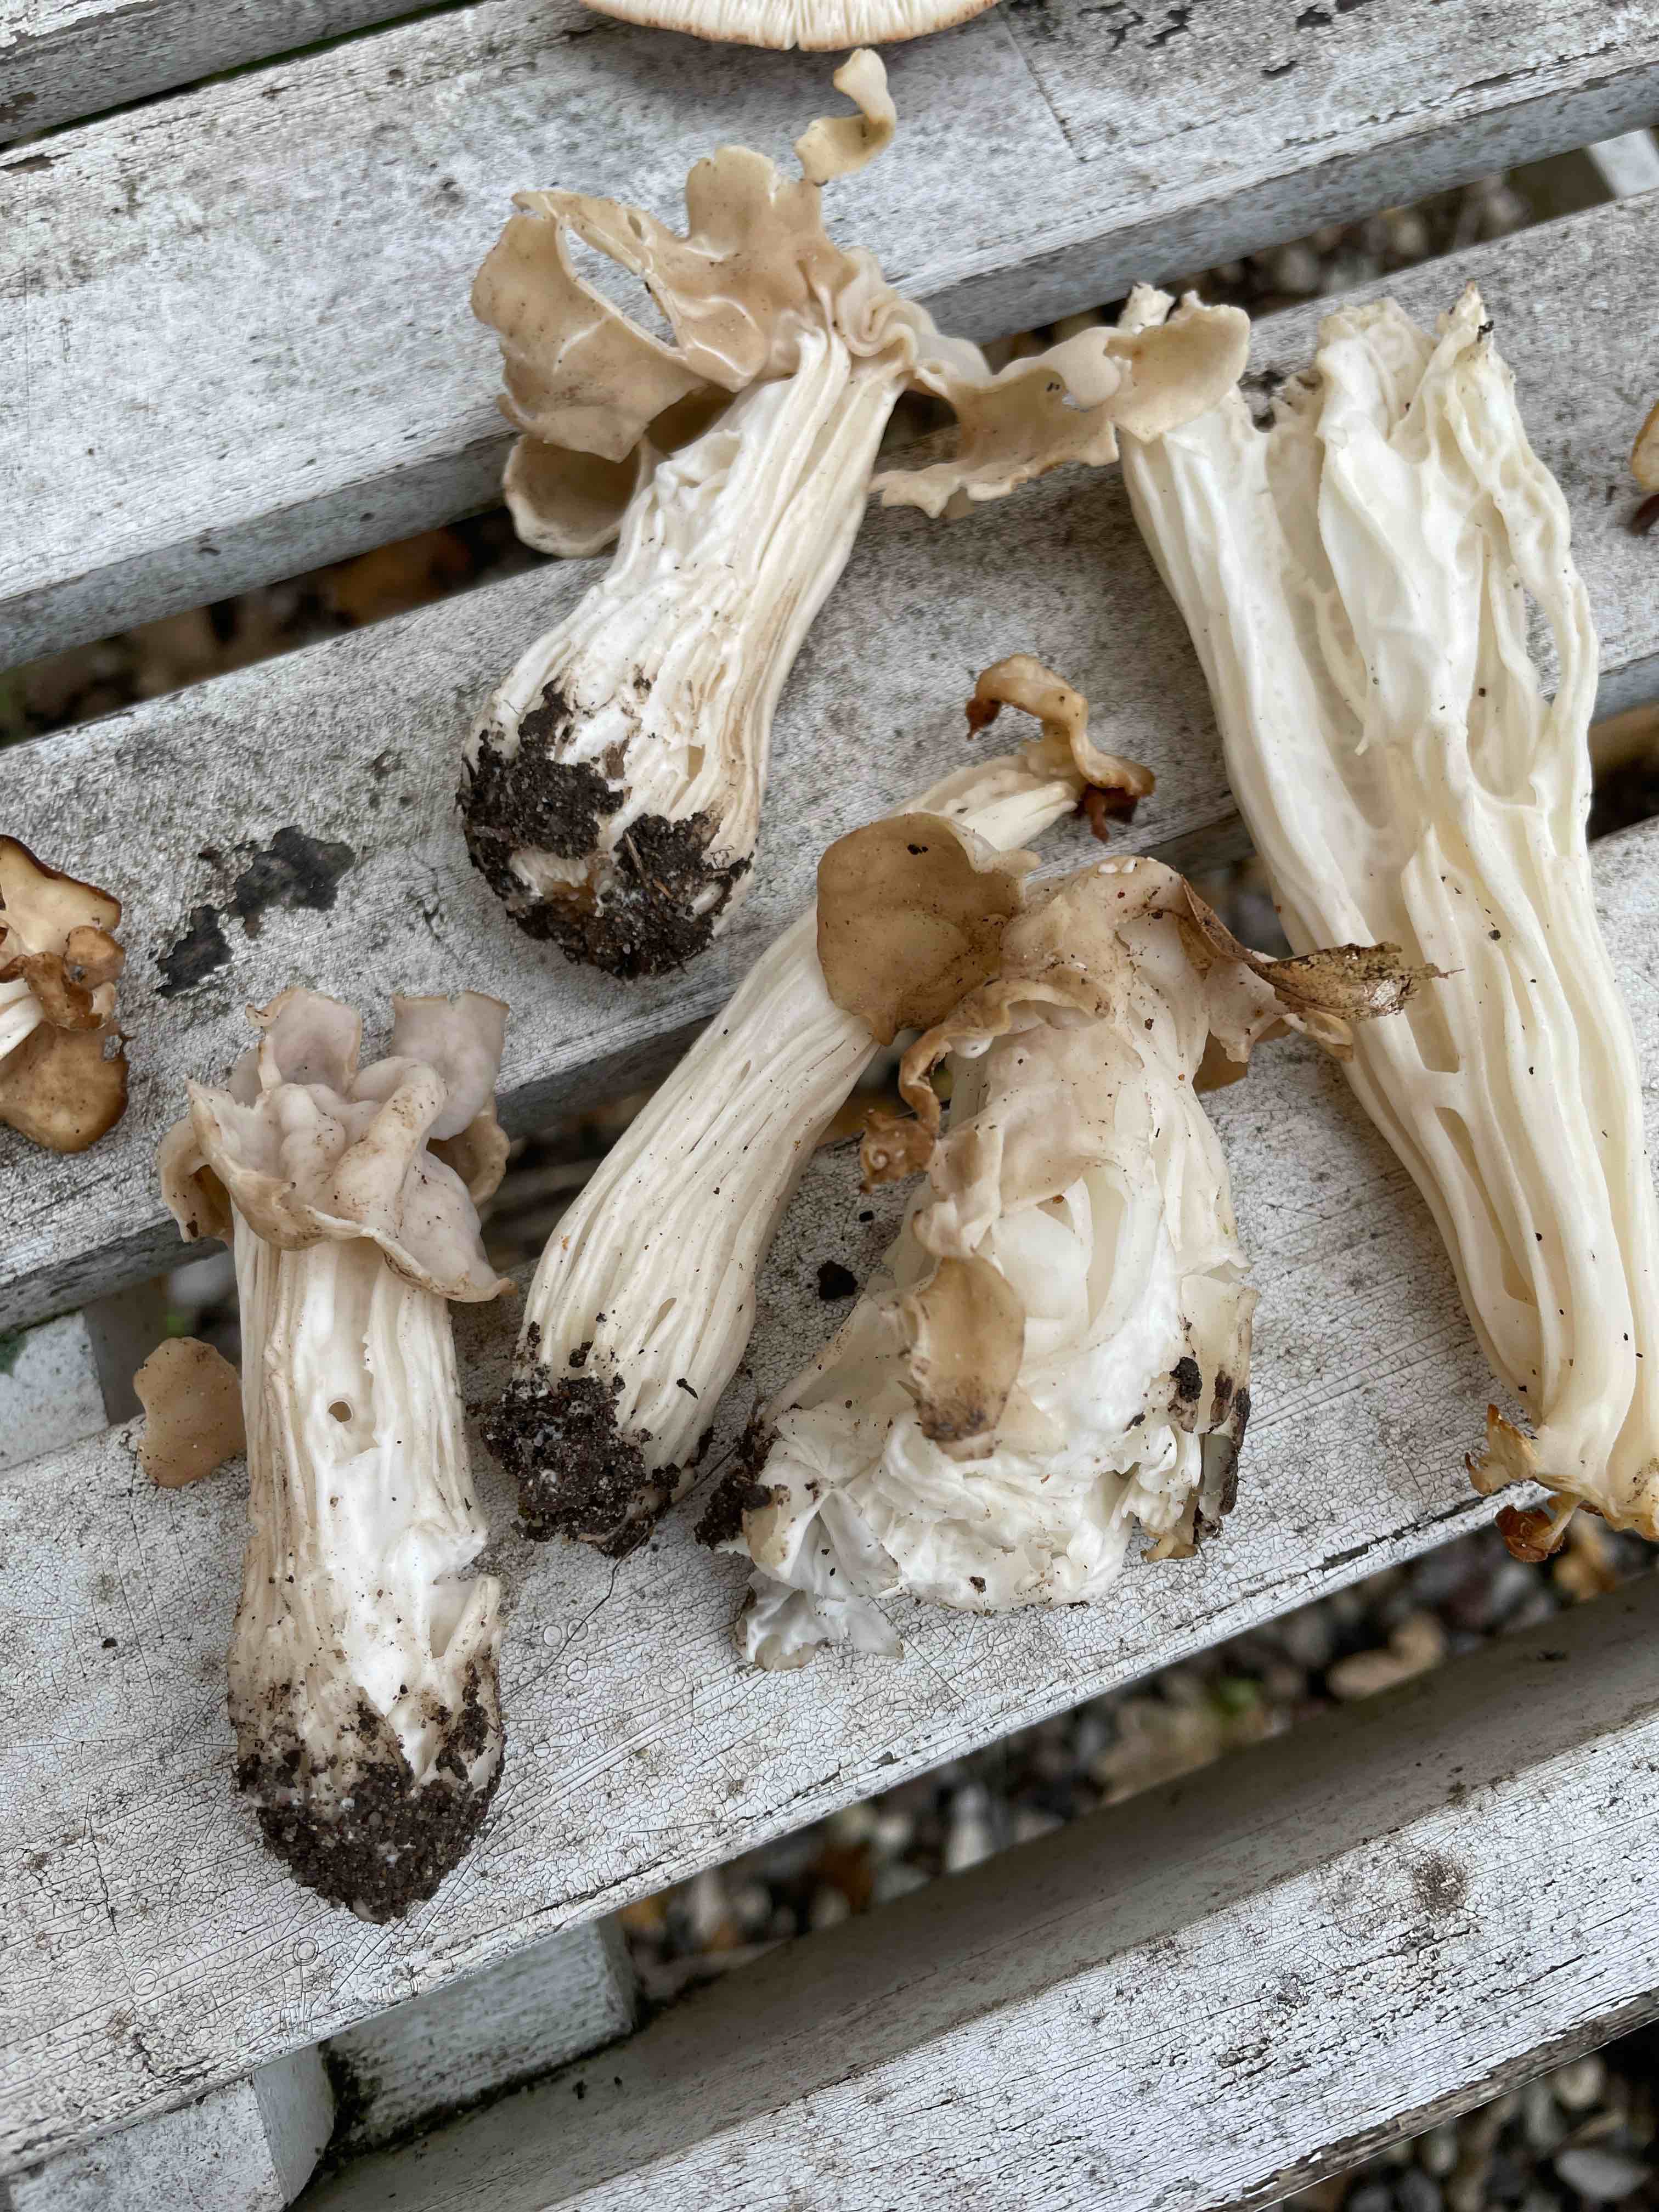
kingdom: Fungi
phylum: Ascomycota
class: Pezizomycetes
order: Pezizales
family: Helvellaceae
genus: Helvella
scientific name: Helvella crispa
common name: kruset foldhat
